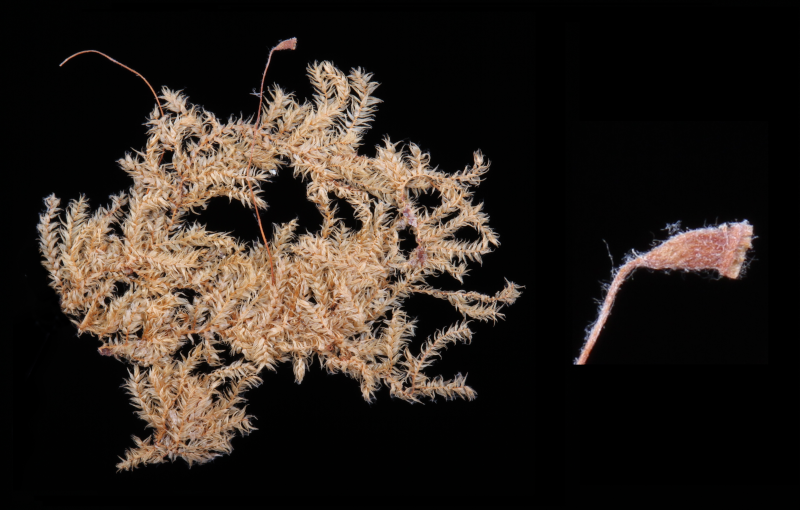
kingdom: Plantae
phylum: Bryophyta
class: Bryopsida
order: Hypnales
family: Pylaisiadelphaceae
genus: Taxithelium
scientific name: Taxithelium lindbergii
